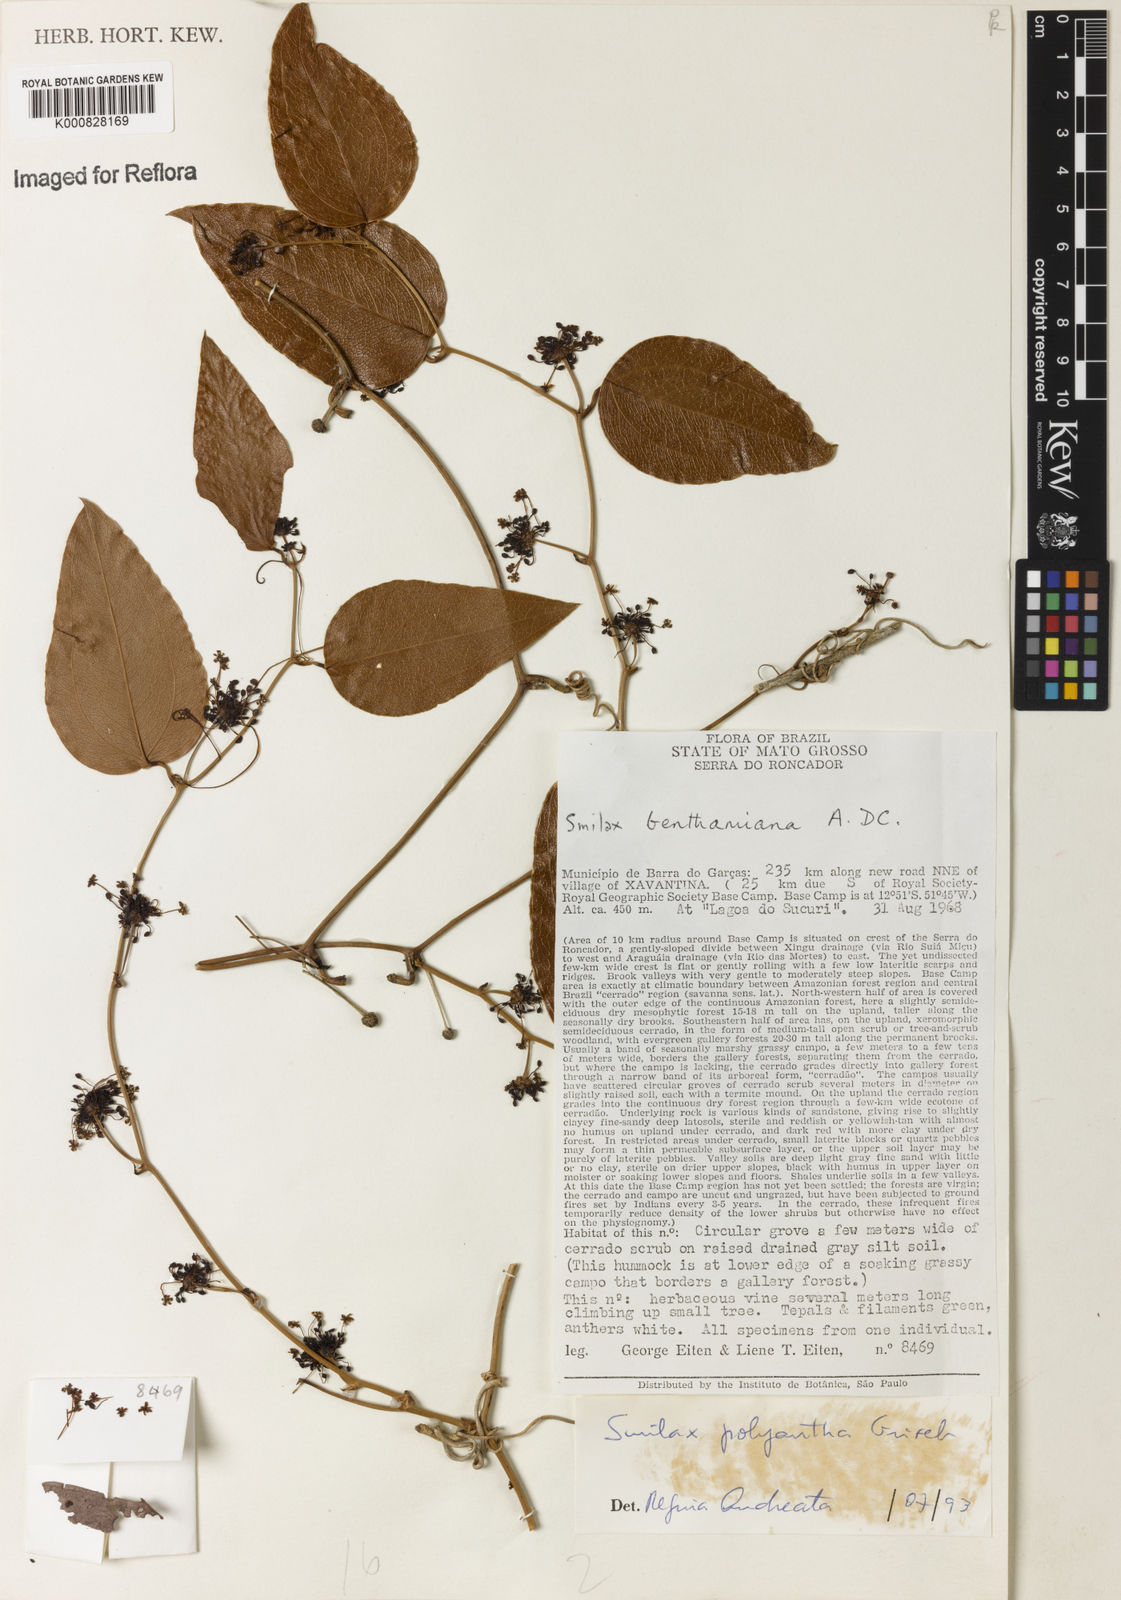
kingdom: Plantae
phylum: Tracheophyta
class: Liliopsida
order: Liliales
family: Smilacaceae
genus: Smilax
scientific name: Smilax polyantha
